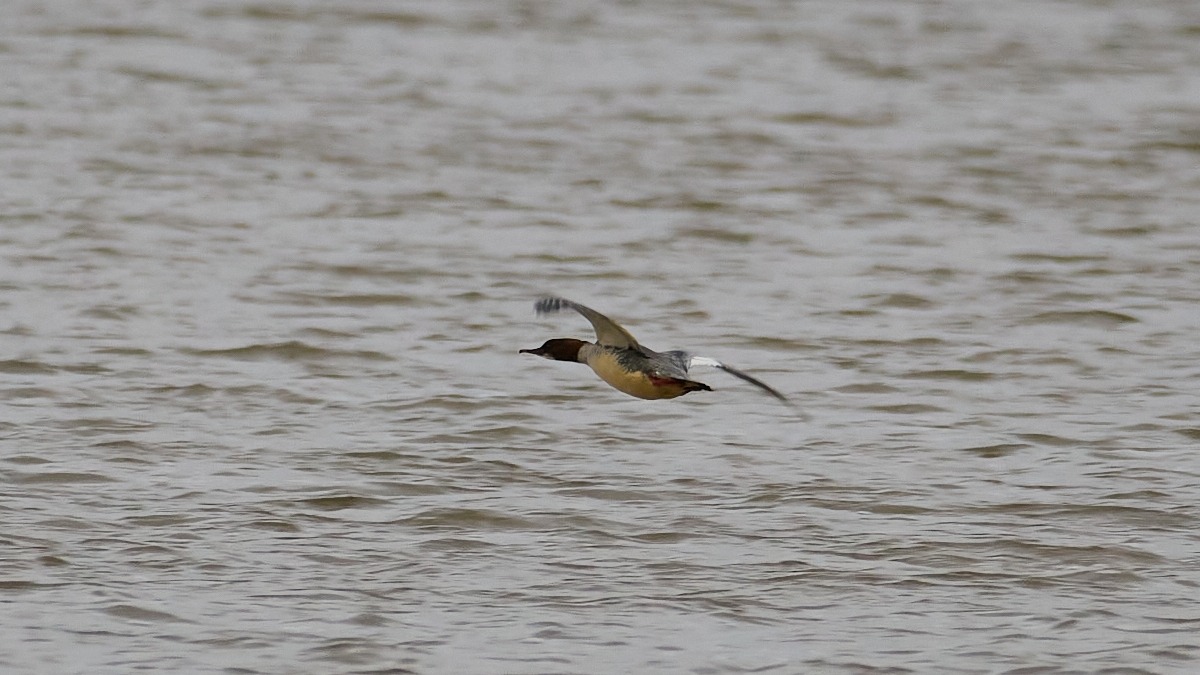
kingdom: Animalia
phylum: Chordata
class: Aves
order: Anseriformes
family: Anatidae
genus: Mergus
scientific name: Mergus merganser
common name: Stor skallesluger
